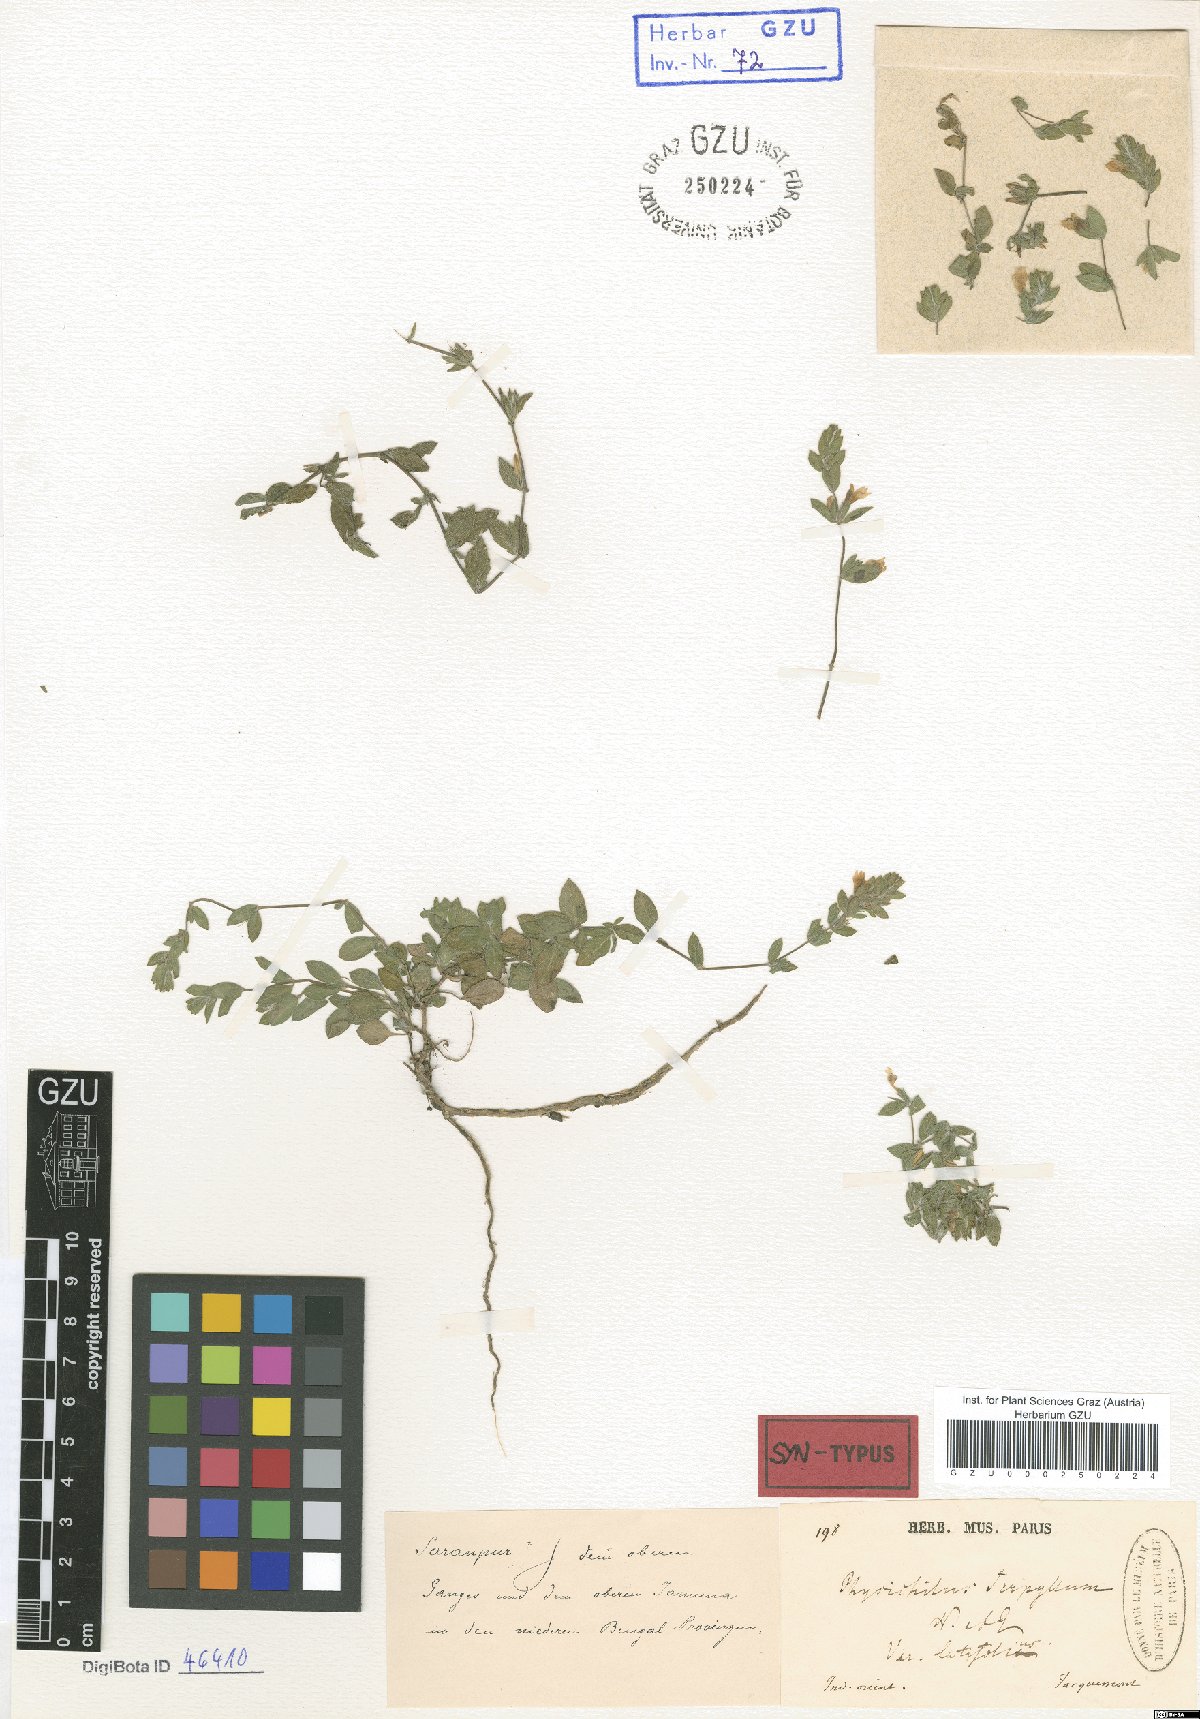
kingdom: Plantae
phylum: Tracheophyta
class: Magnoliopsida
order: Lamiales
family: Acanthaceae
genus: Hygrophila
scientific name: Hygrophila serpyllum
